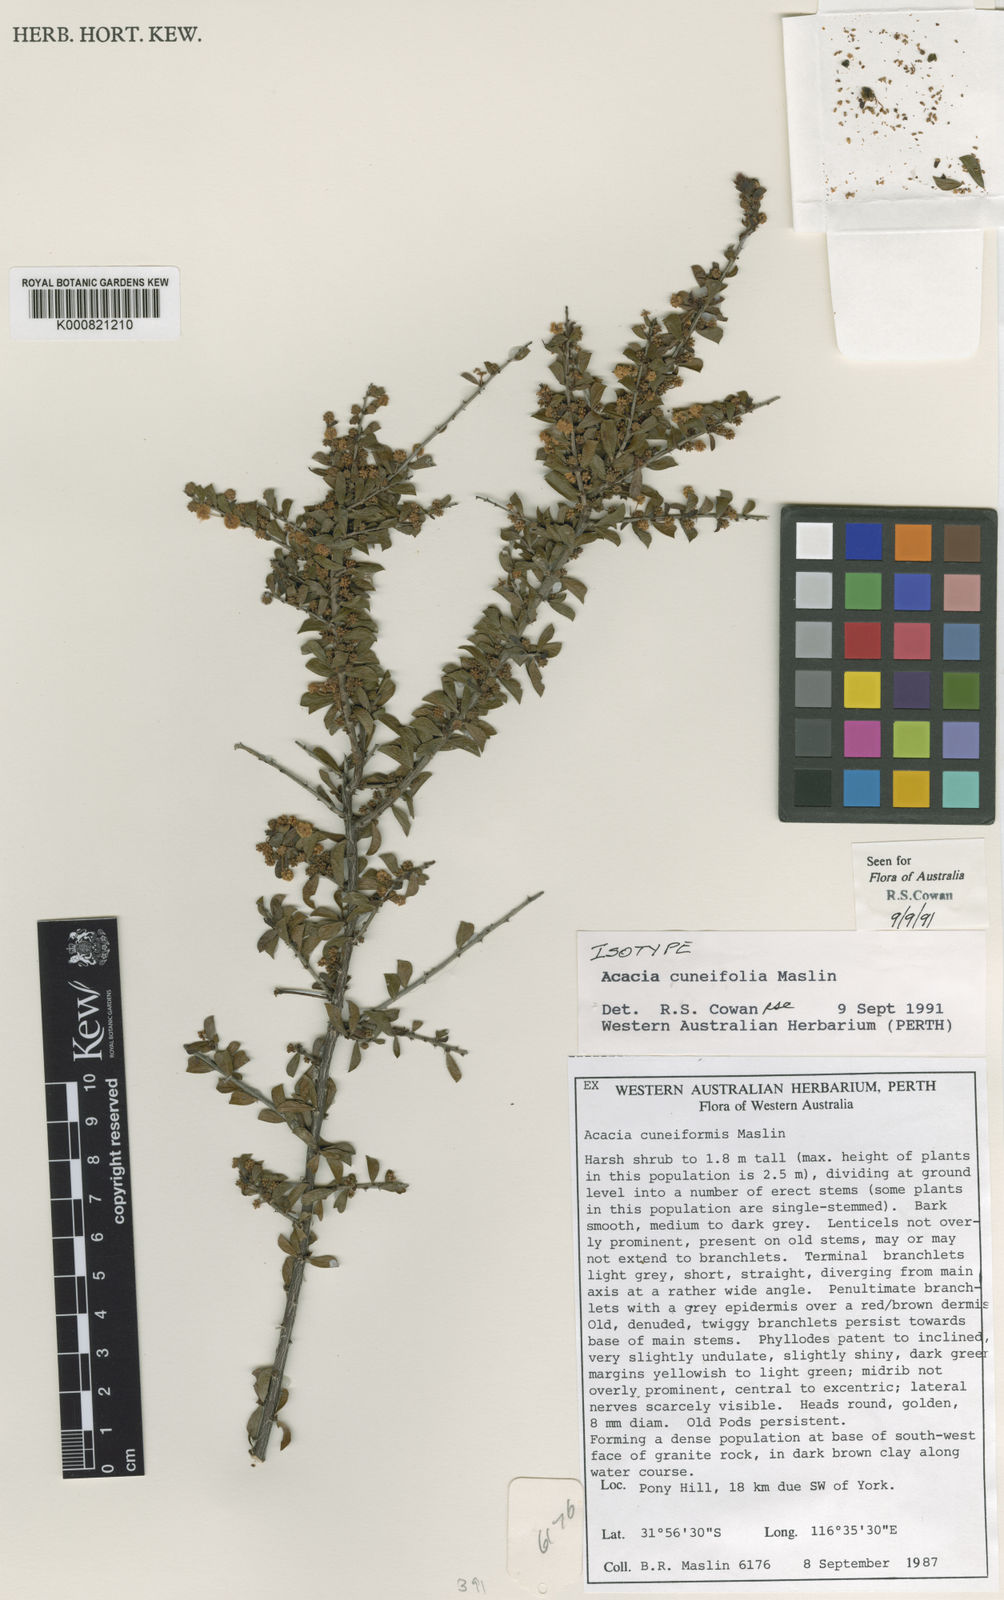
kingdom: Plantae
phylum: Tracheophyta
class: Magnoliopsida
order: Fabales
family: Fabaceae
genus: Acacia
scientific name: Acacia cuneifolia
